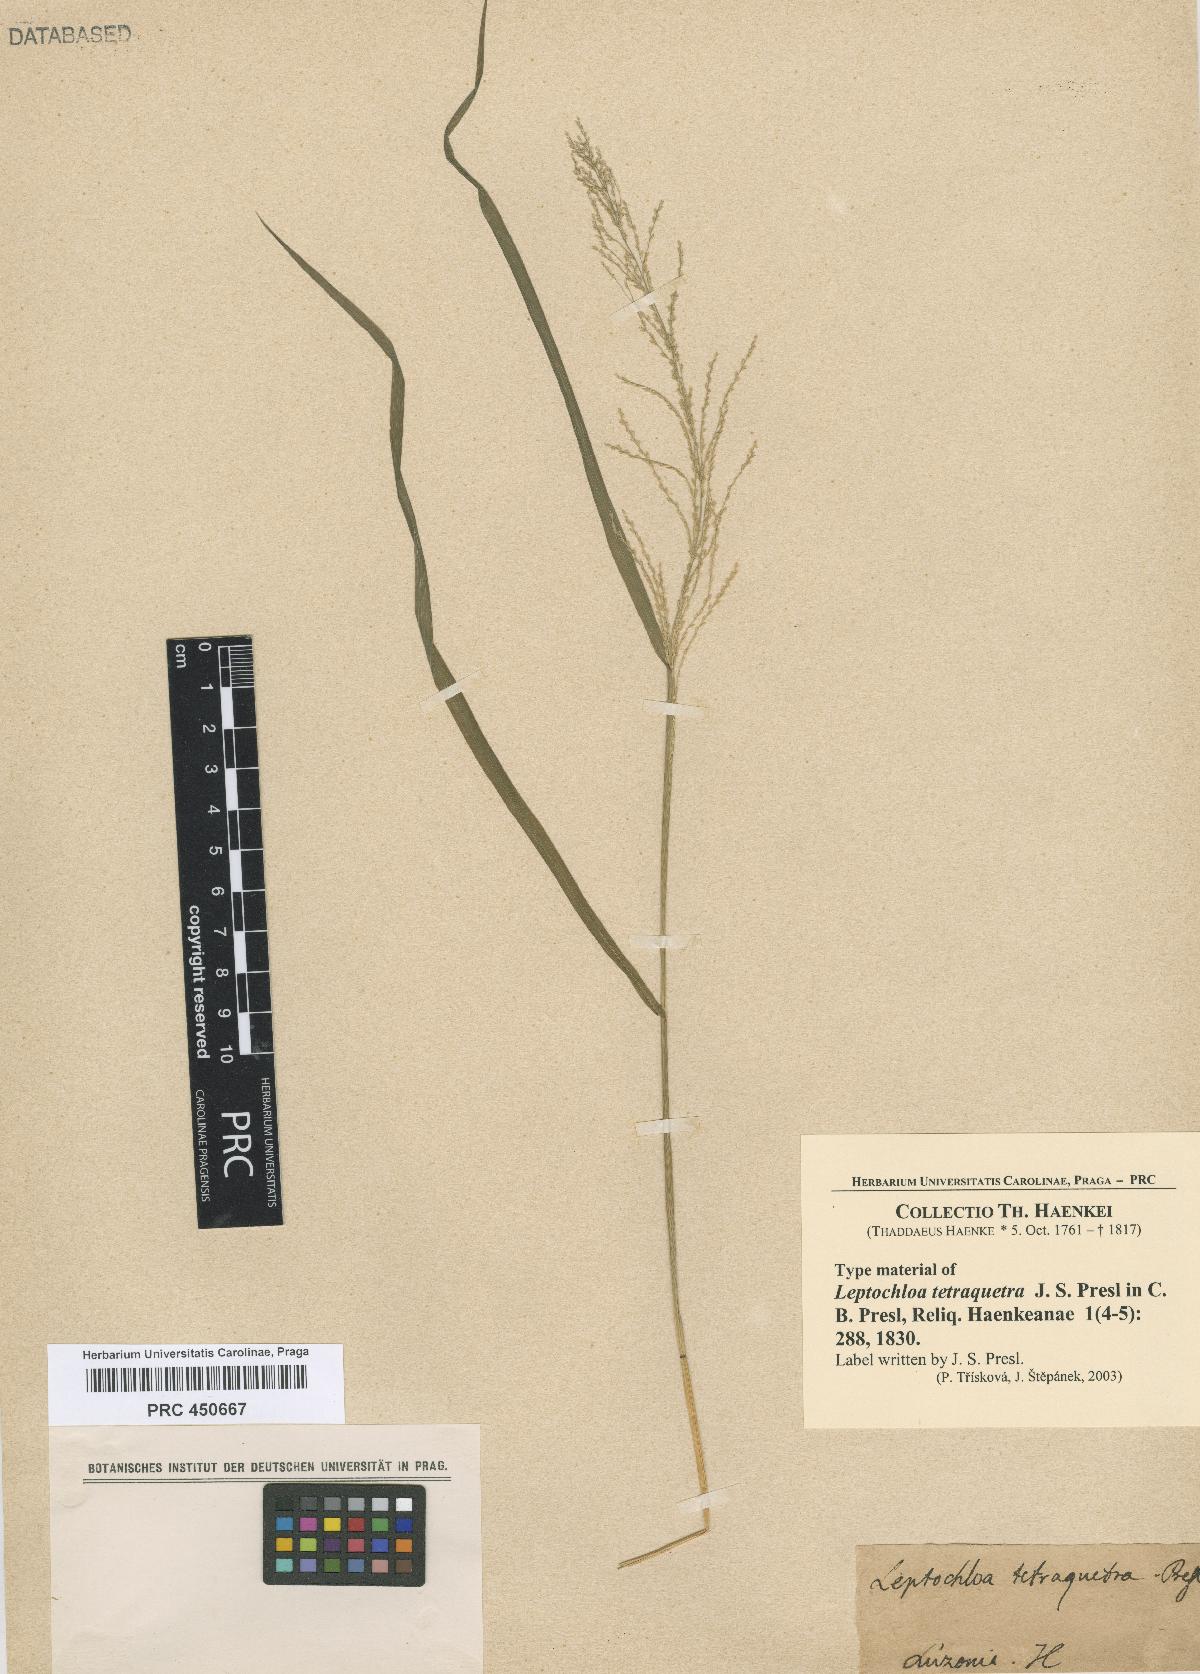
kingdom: Plantae
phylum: Tracheophyta
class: Liliopsida
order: Poales
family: Poaceae
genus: Leptochloa
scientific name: Leptochloa chinensis
